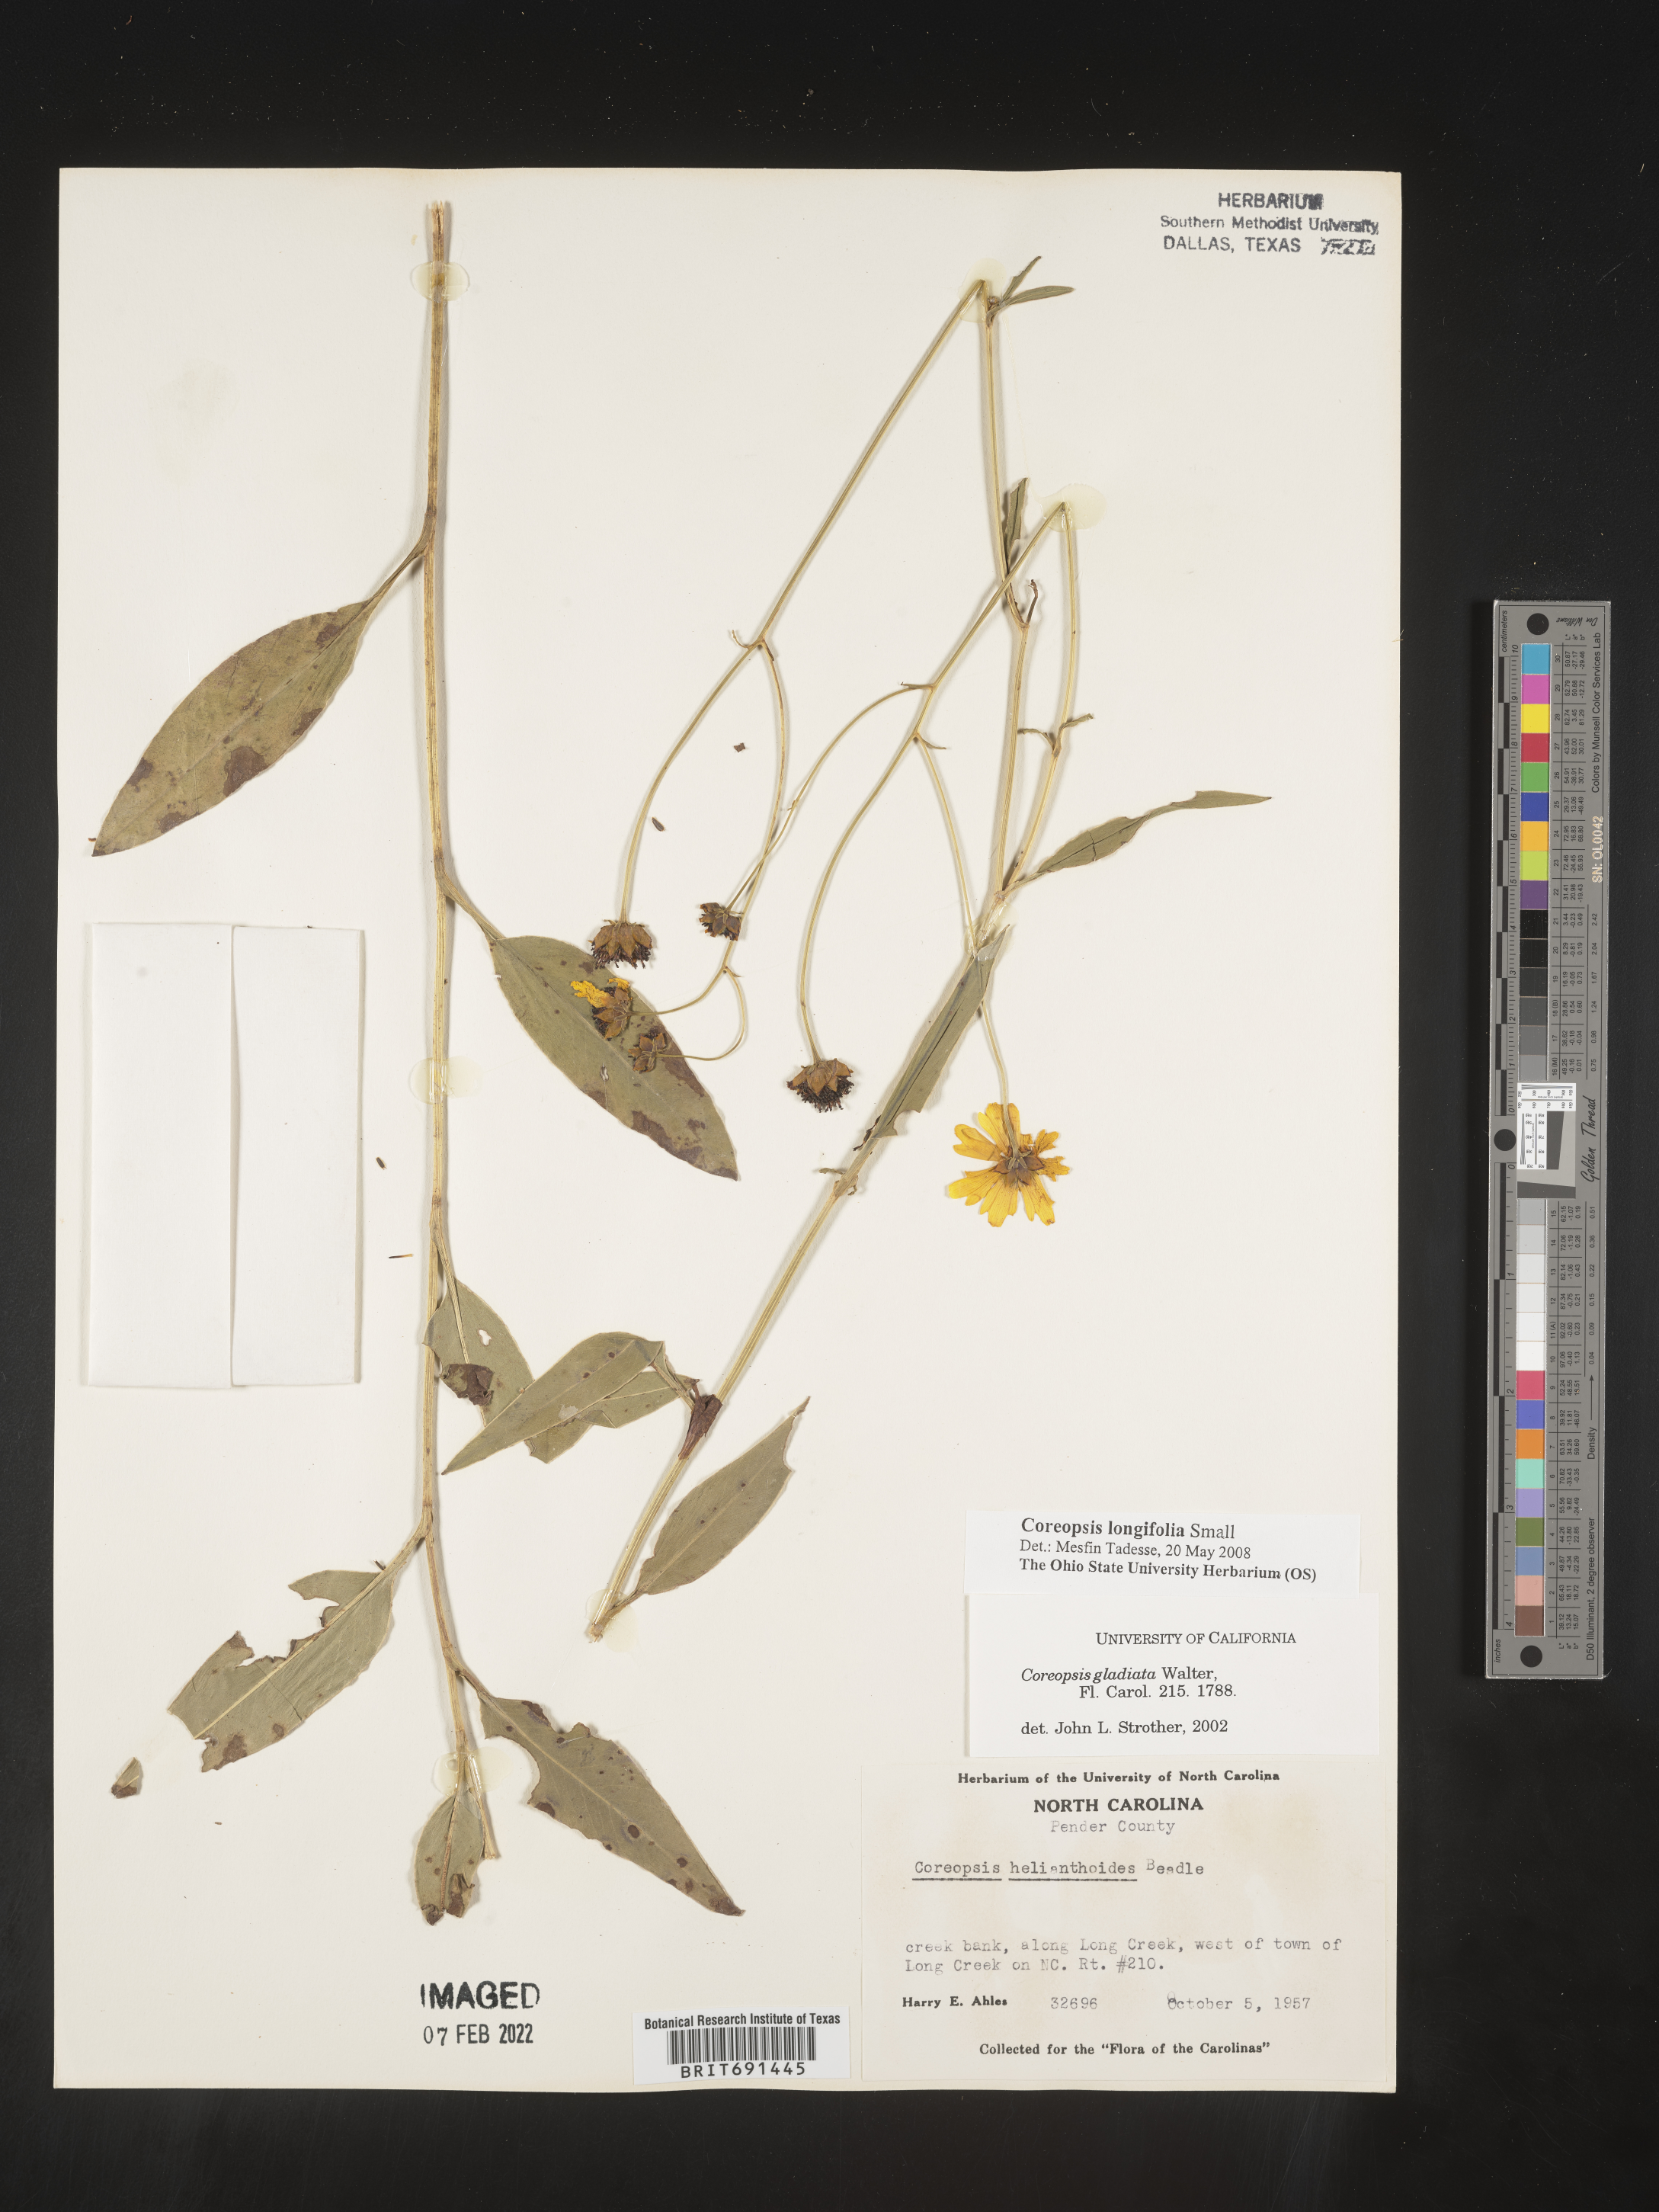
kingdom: Plantae
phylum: Tracheophyta
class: Magnoliopsida
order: Asterales
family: Asteraceae
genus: Coreopsis
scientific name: Coreopsis gladiata
